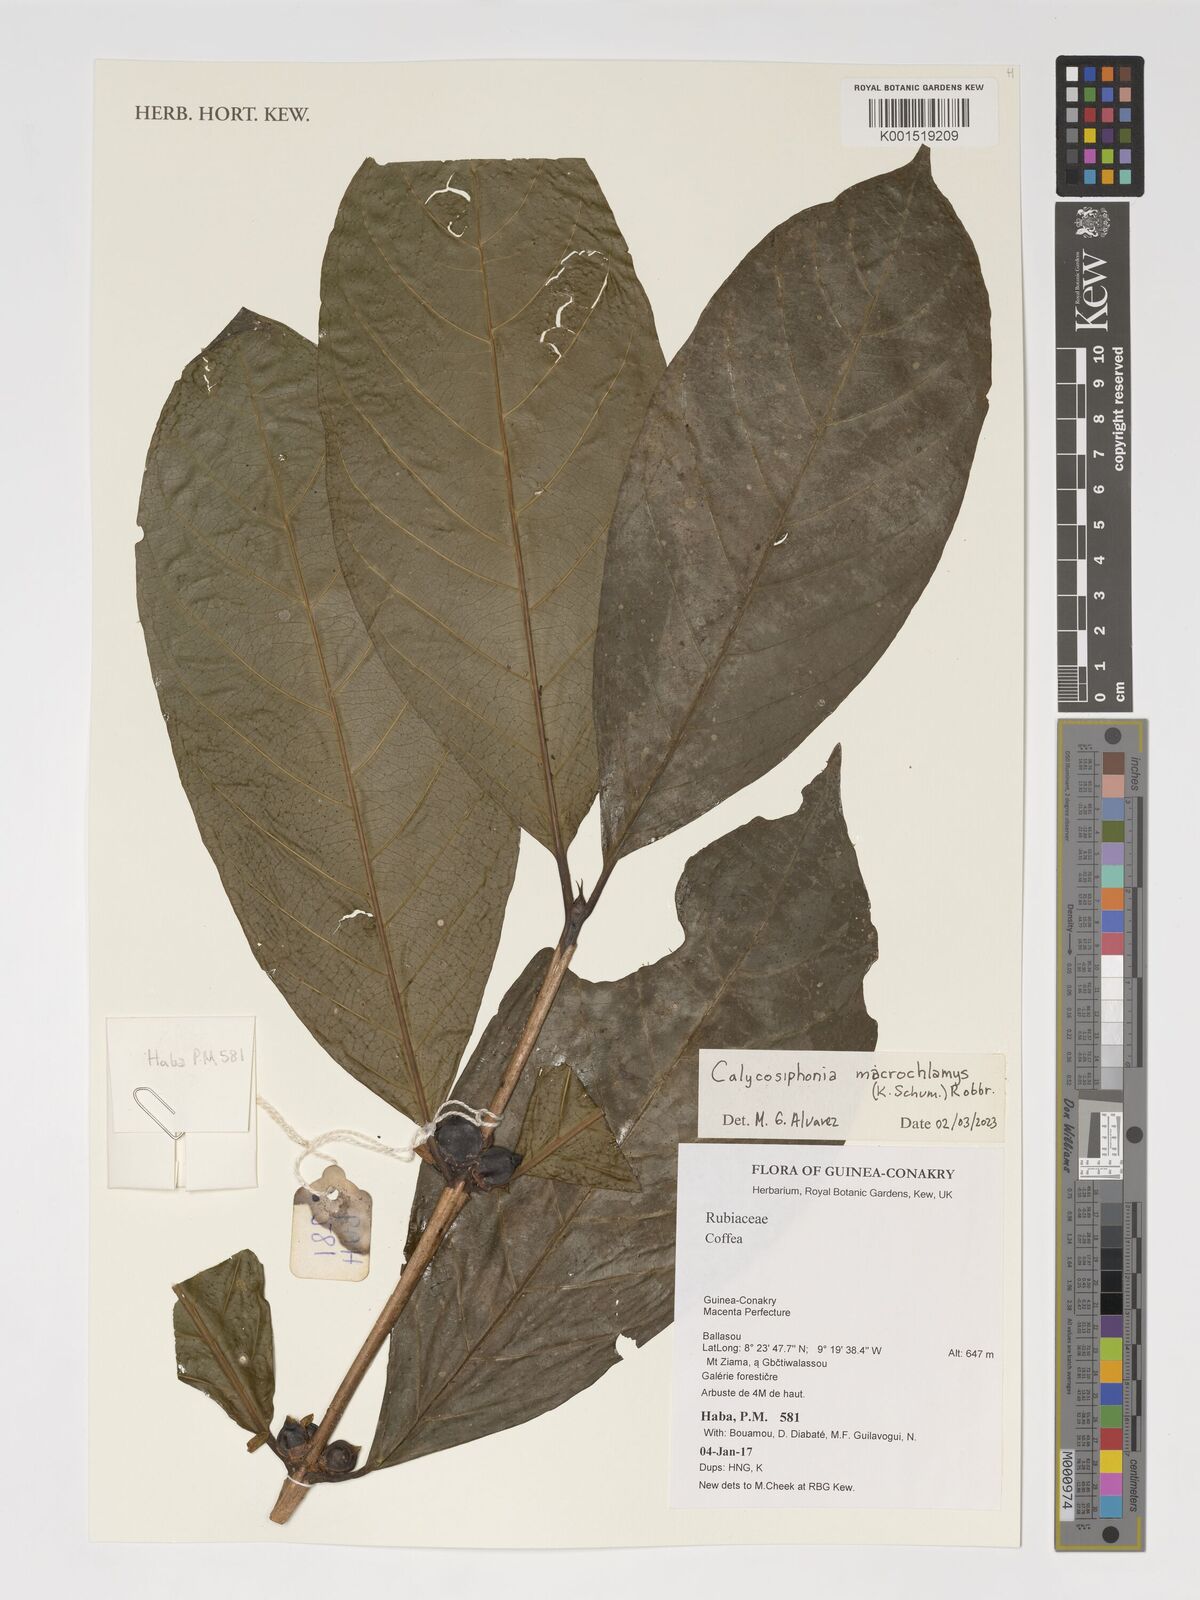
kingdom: Plantae
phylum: Tracheophyta
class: Magnoliopsida
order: Gentianales
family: Rubiaceae
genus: Calycosiphonia
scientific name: Calycosiphonia macrochlamys
